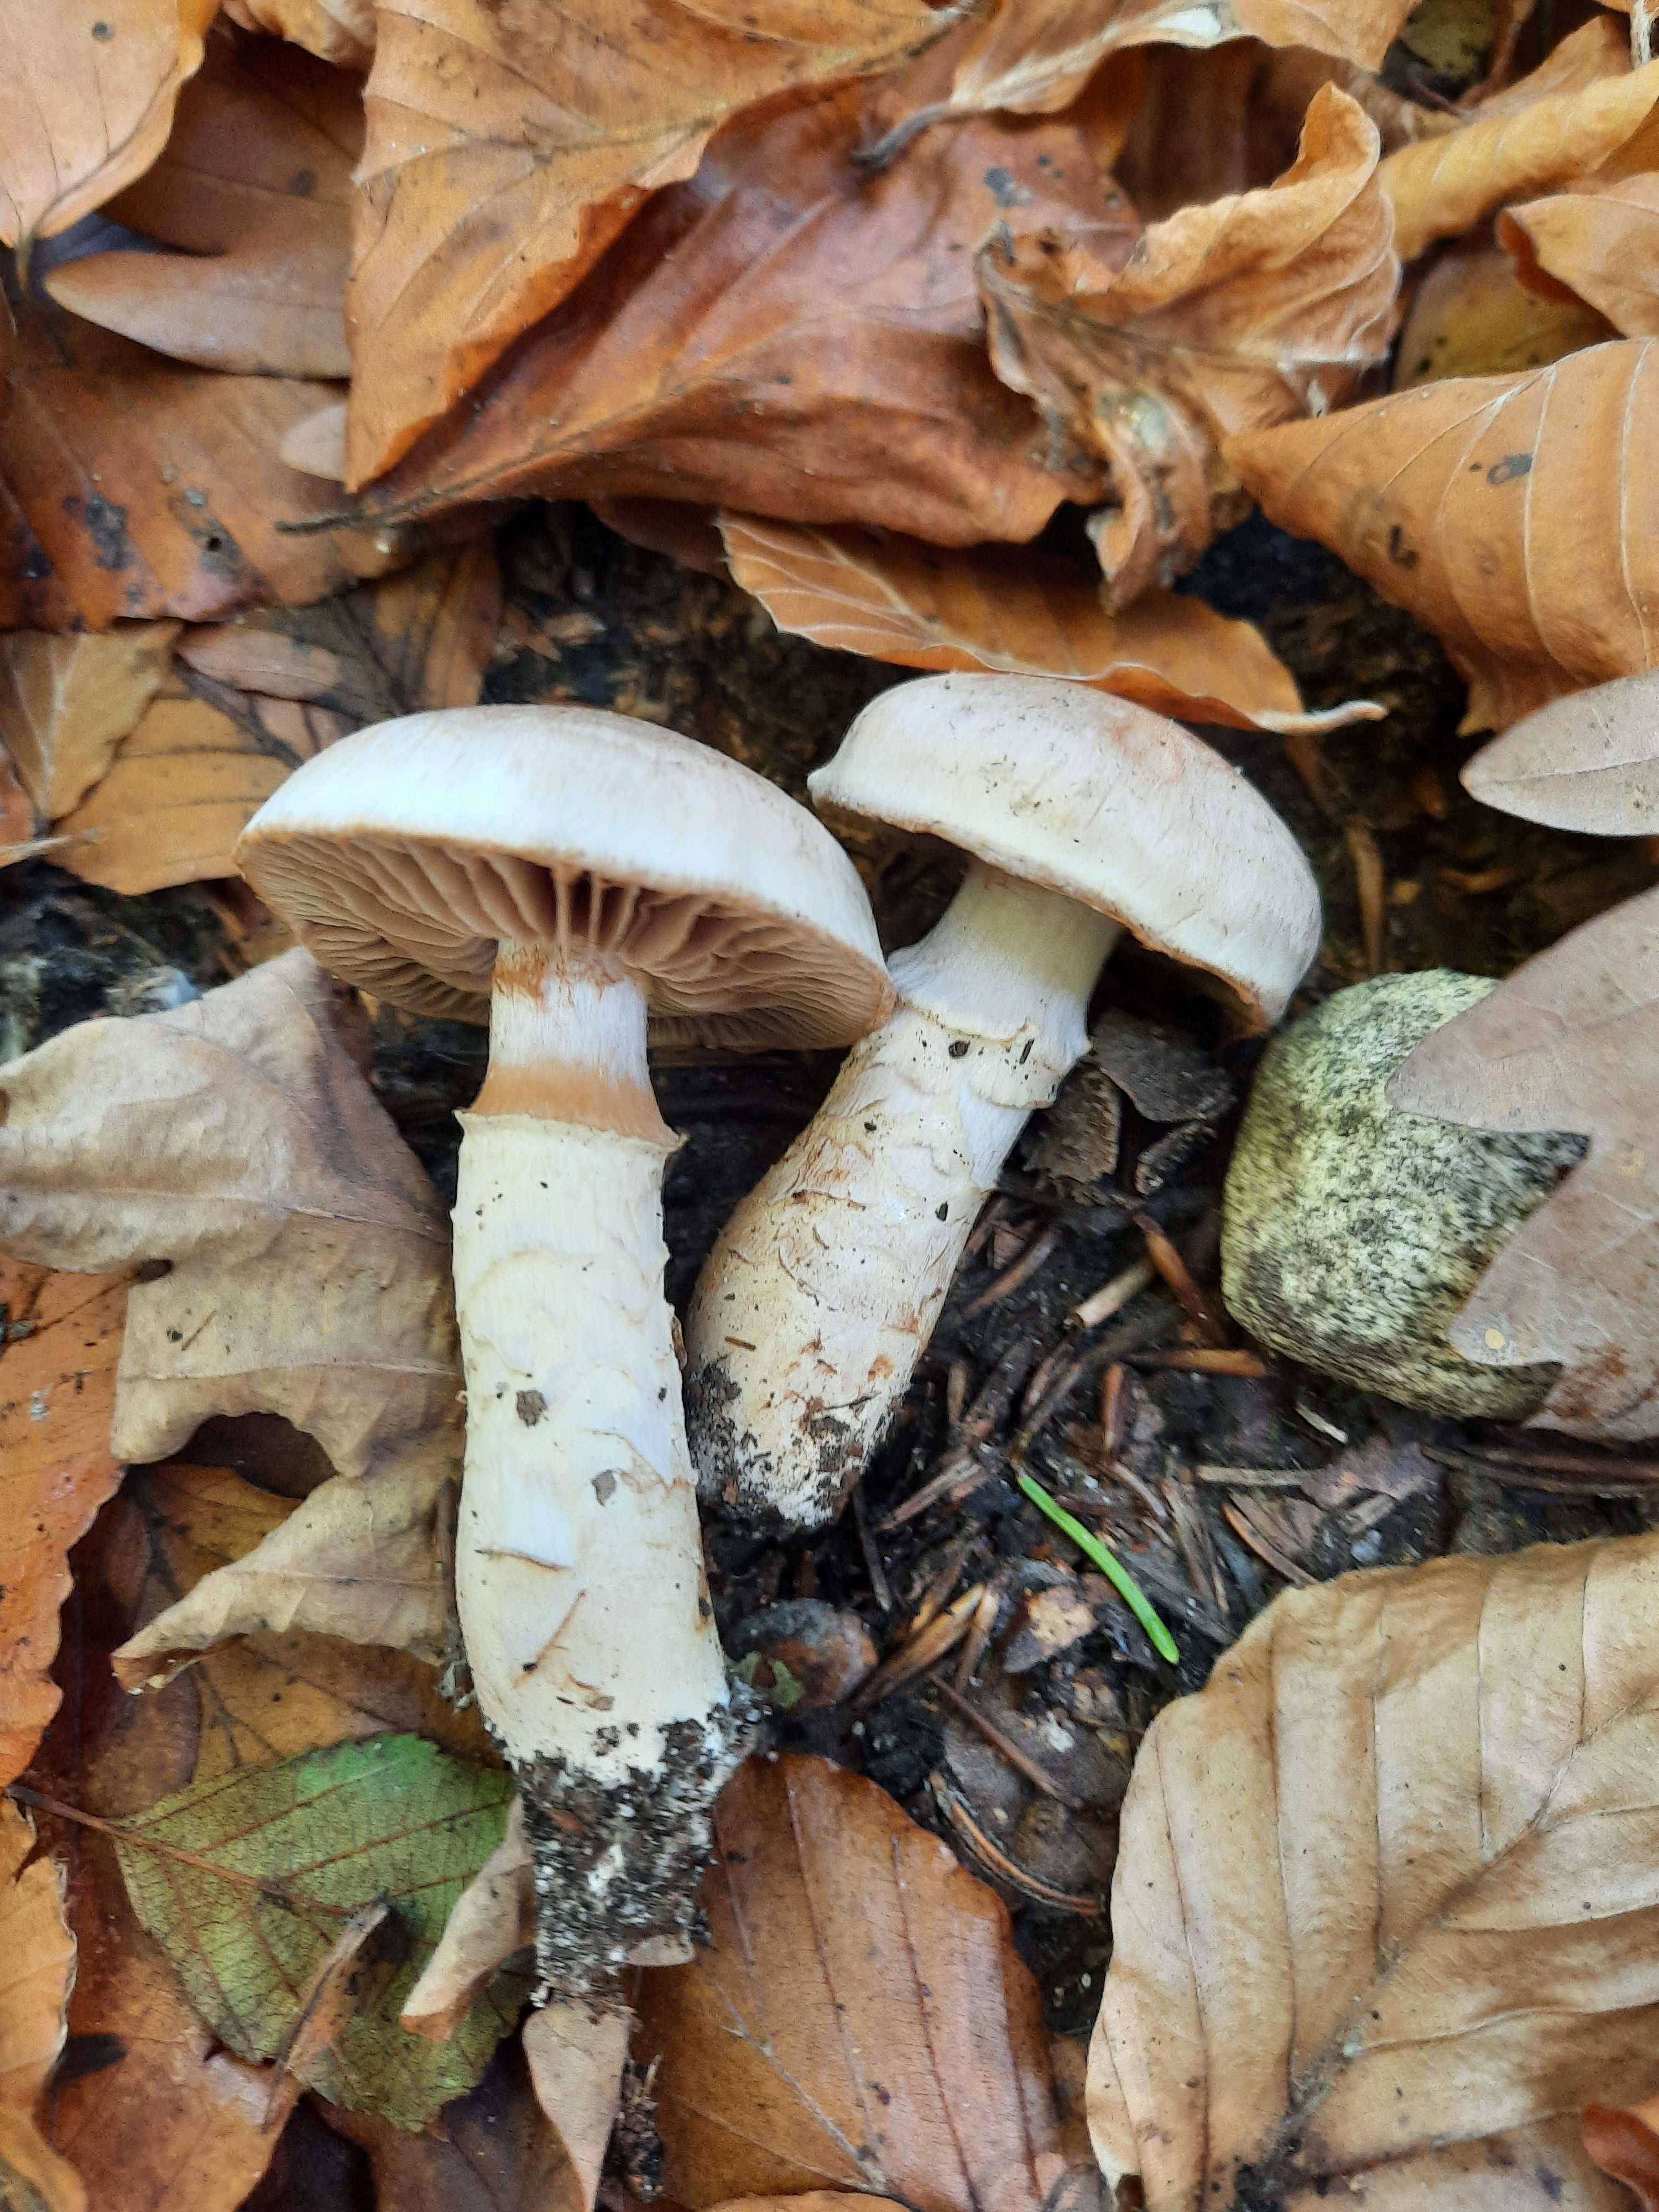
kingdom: Fungi
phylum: Basidiomycota
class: Agaricomycetes
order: Agaricales
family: Cortinariaceae
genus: Cortinarius
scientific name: Cortinarius torvus
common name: champignonagtig slørhat
